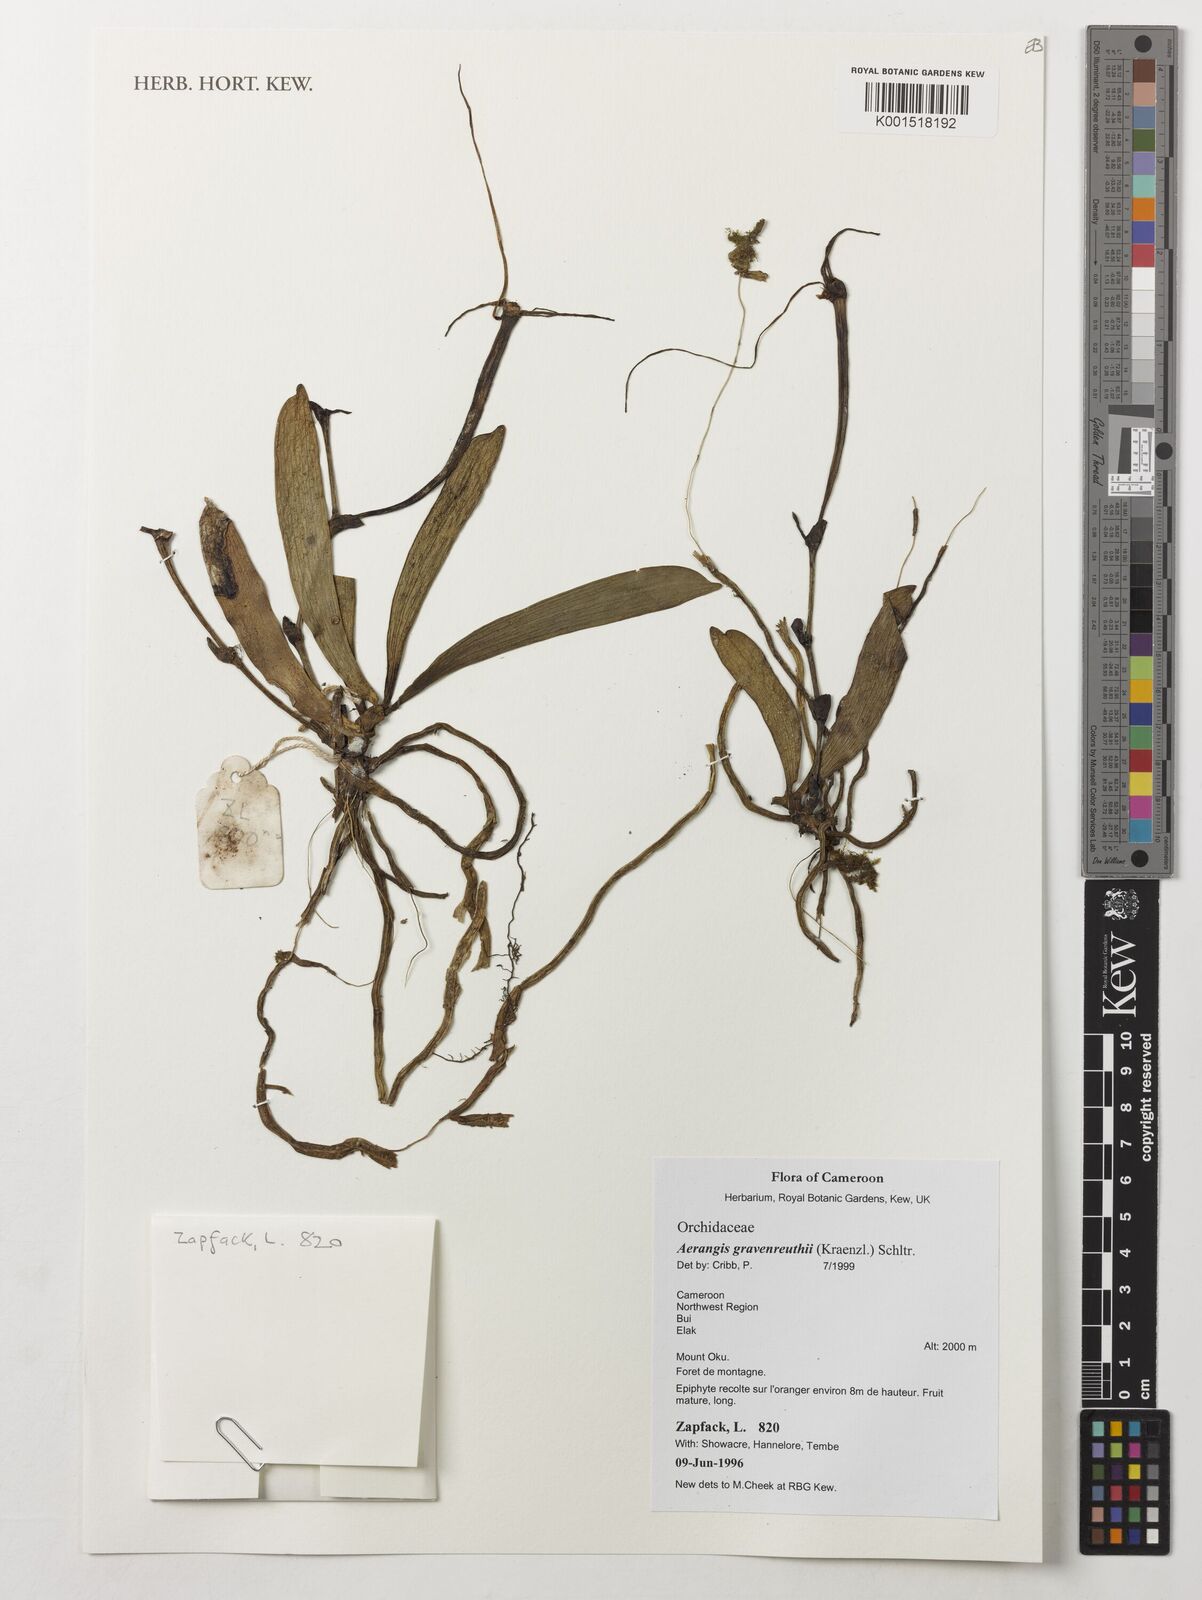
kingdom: Plantae
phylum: Tracheophyta
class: Liliopsida
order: Asparagales
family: Orchidaceae
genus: Aerangis
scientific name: Aerangis gravenreuthii
